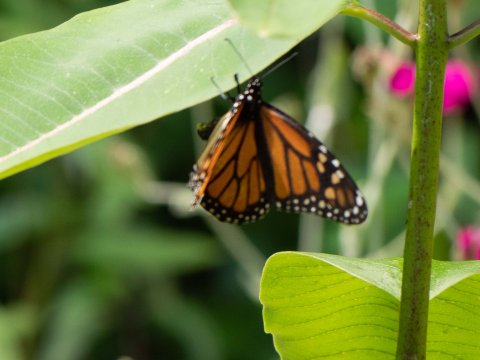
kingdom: Animalia
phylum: Arthropoda
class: Insecta
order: Lepidoptera
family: Nymphalidae
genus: Danaus
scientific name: Danaus plexippus
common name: Monarch
